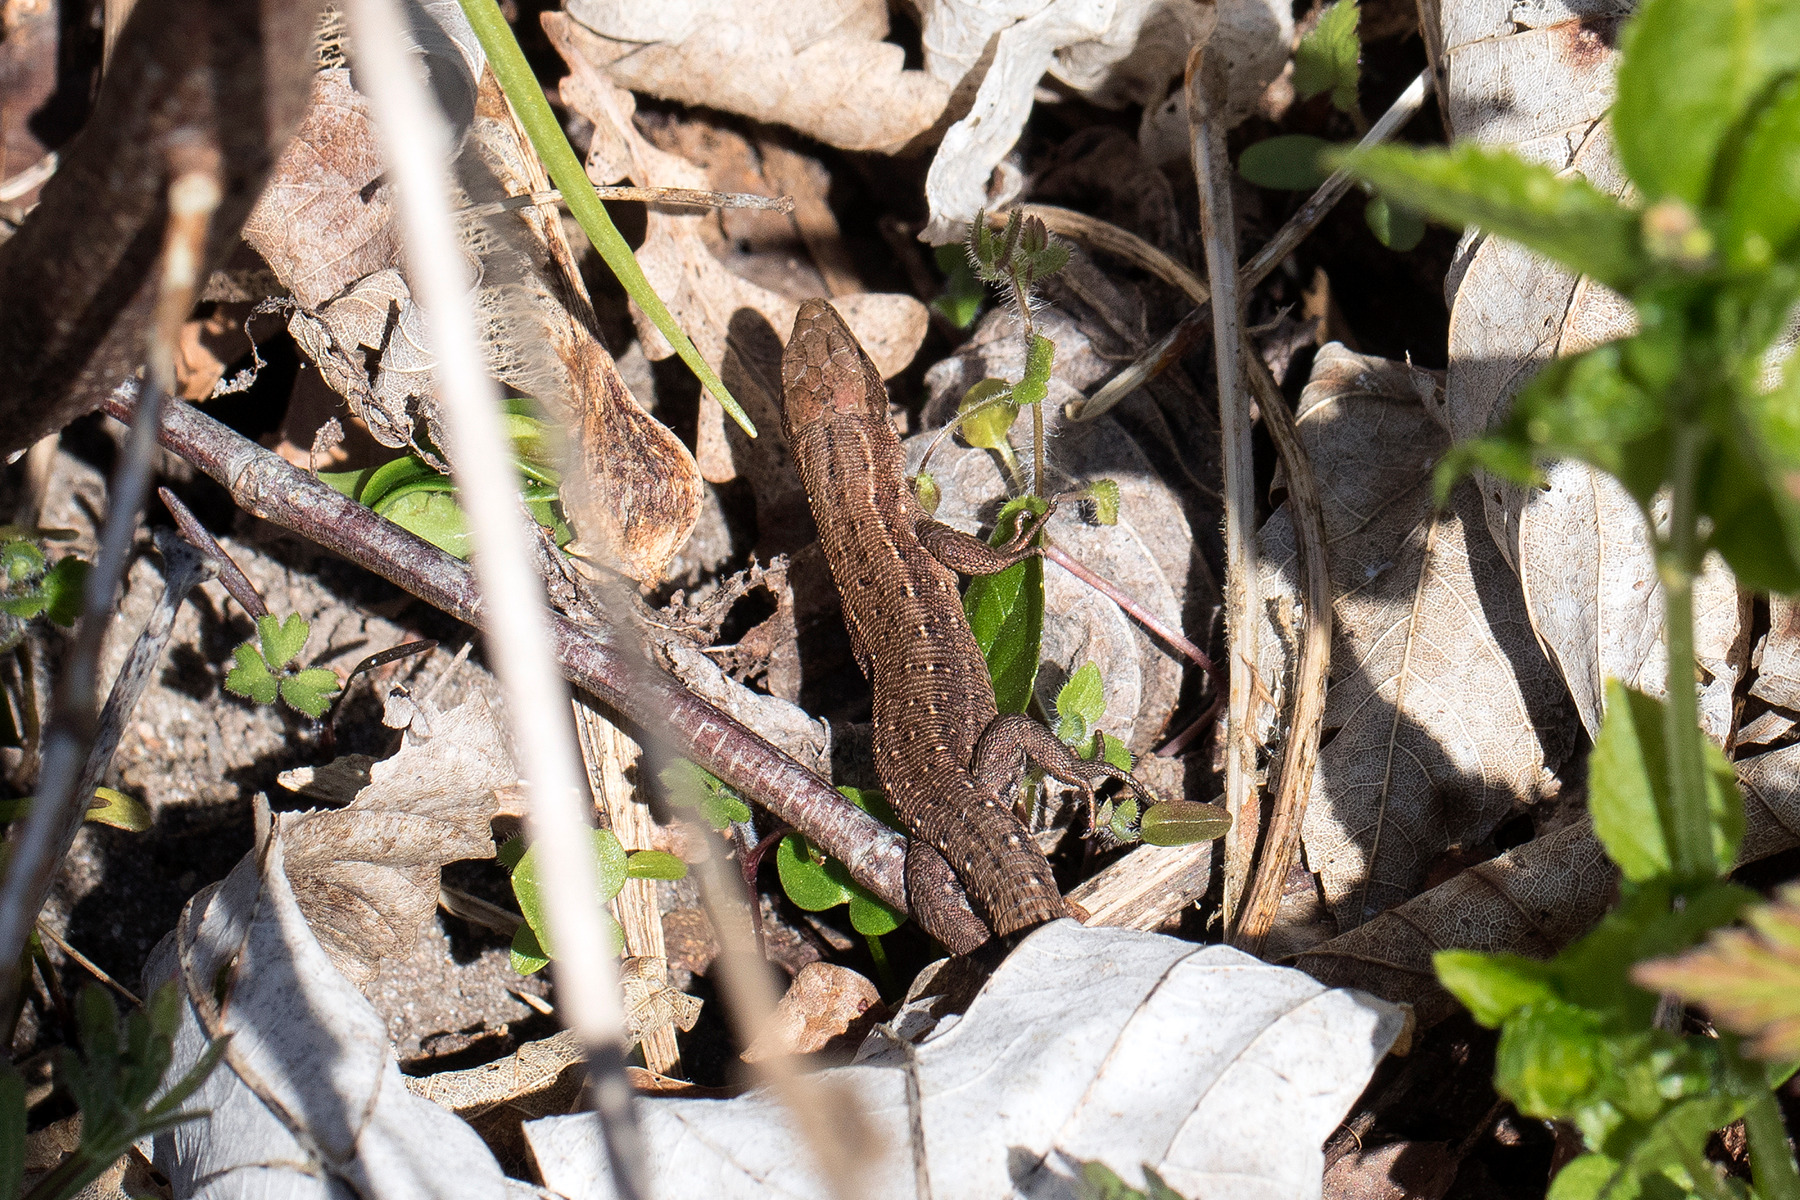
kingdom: Animalia
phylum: Chordata
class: Squamata
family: Lacertidae
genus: Zootoca
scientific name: Zootoca vivipara
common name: Skovfirben
